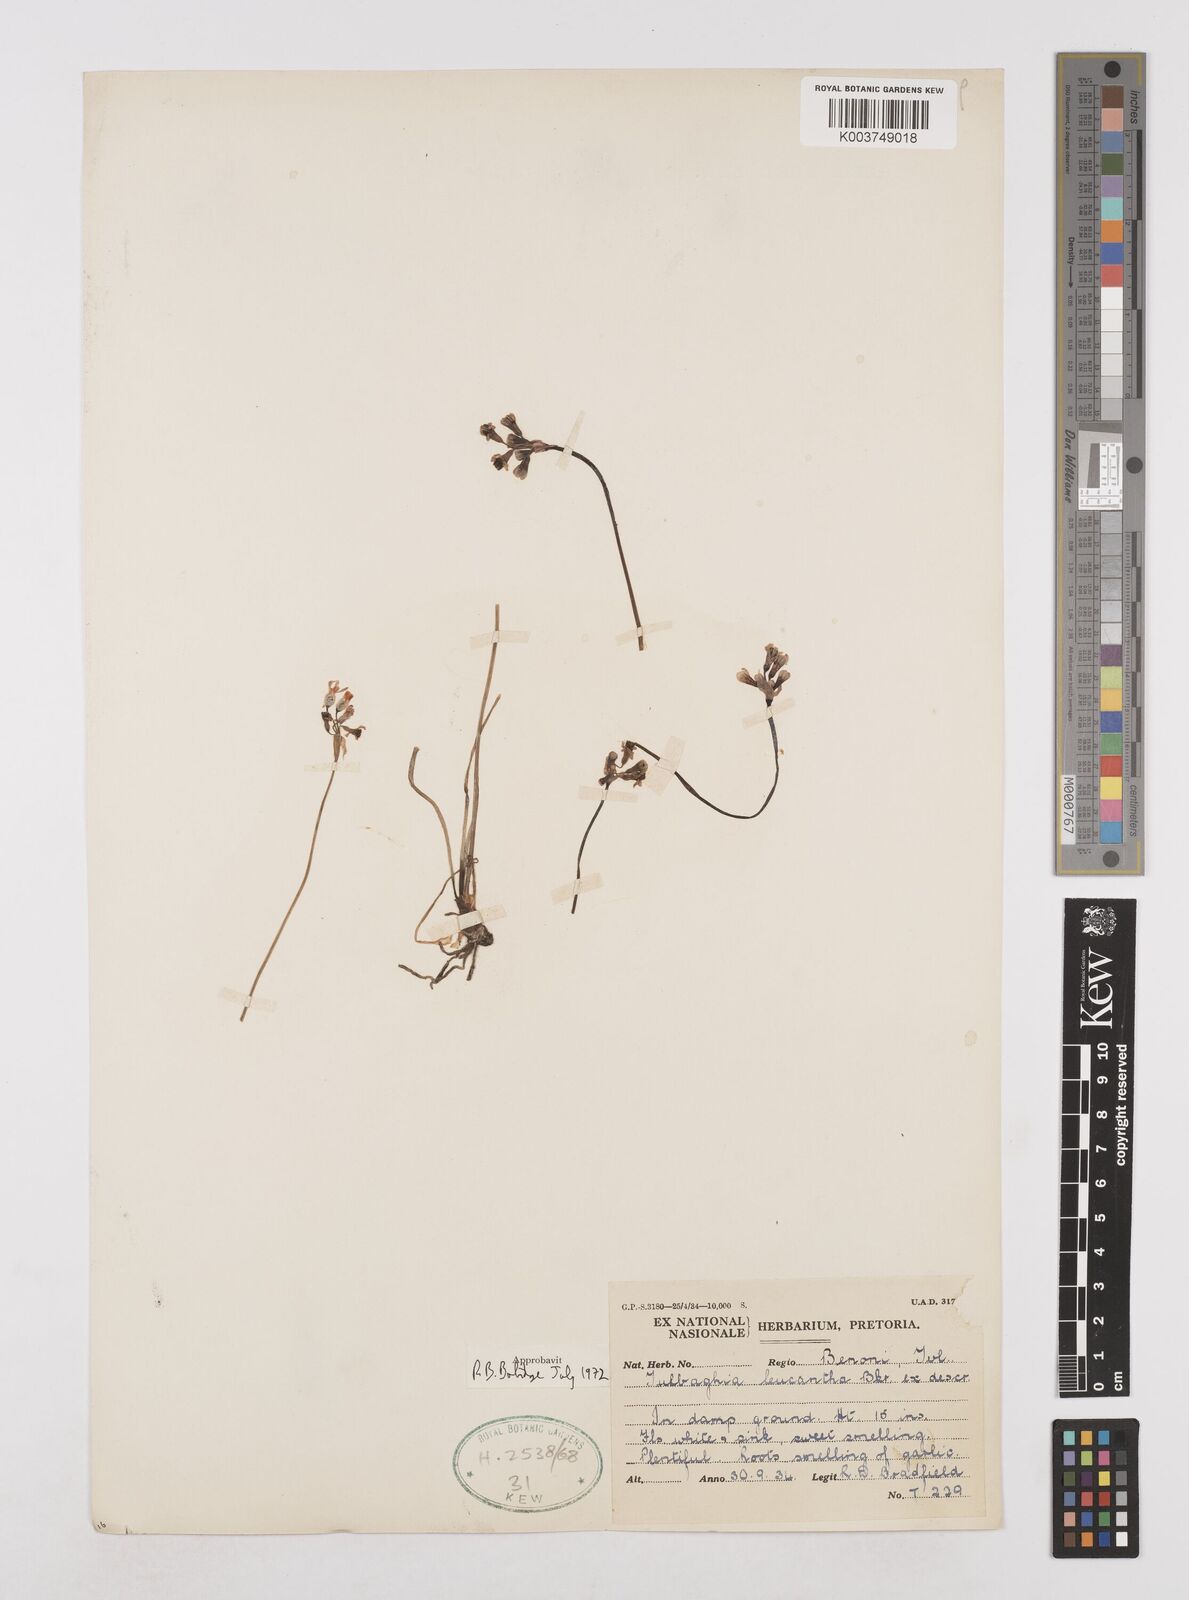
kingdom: Plantae
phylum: Tracheophyta
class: Liliopsida
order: Asparagales
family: Amaryllidaceae
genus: Tulbaghia
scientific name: Tulbaghia leucantha
